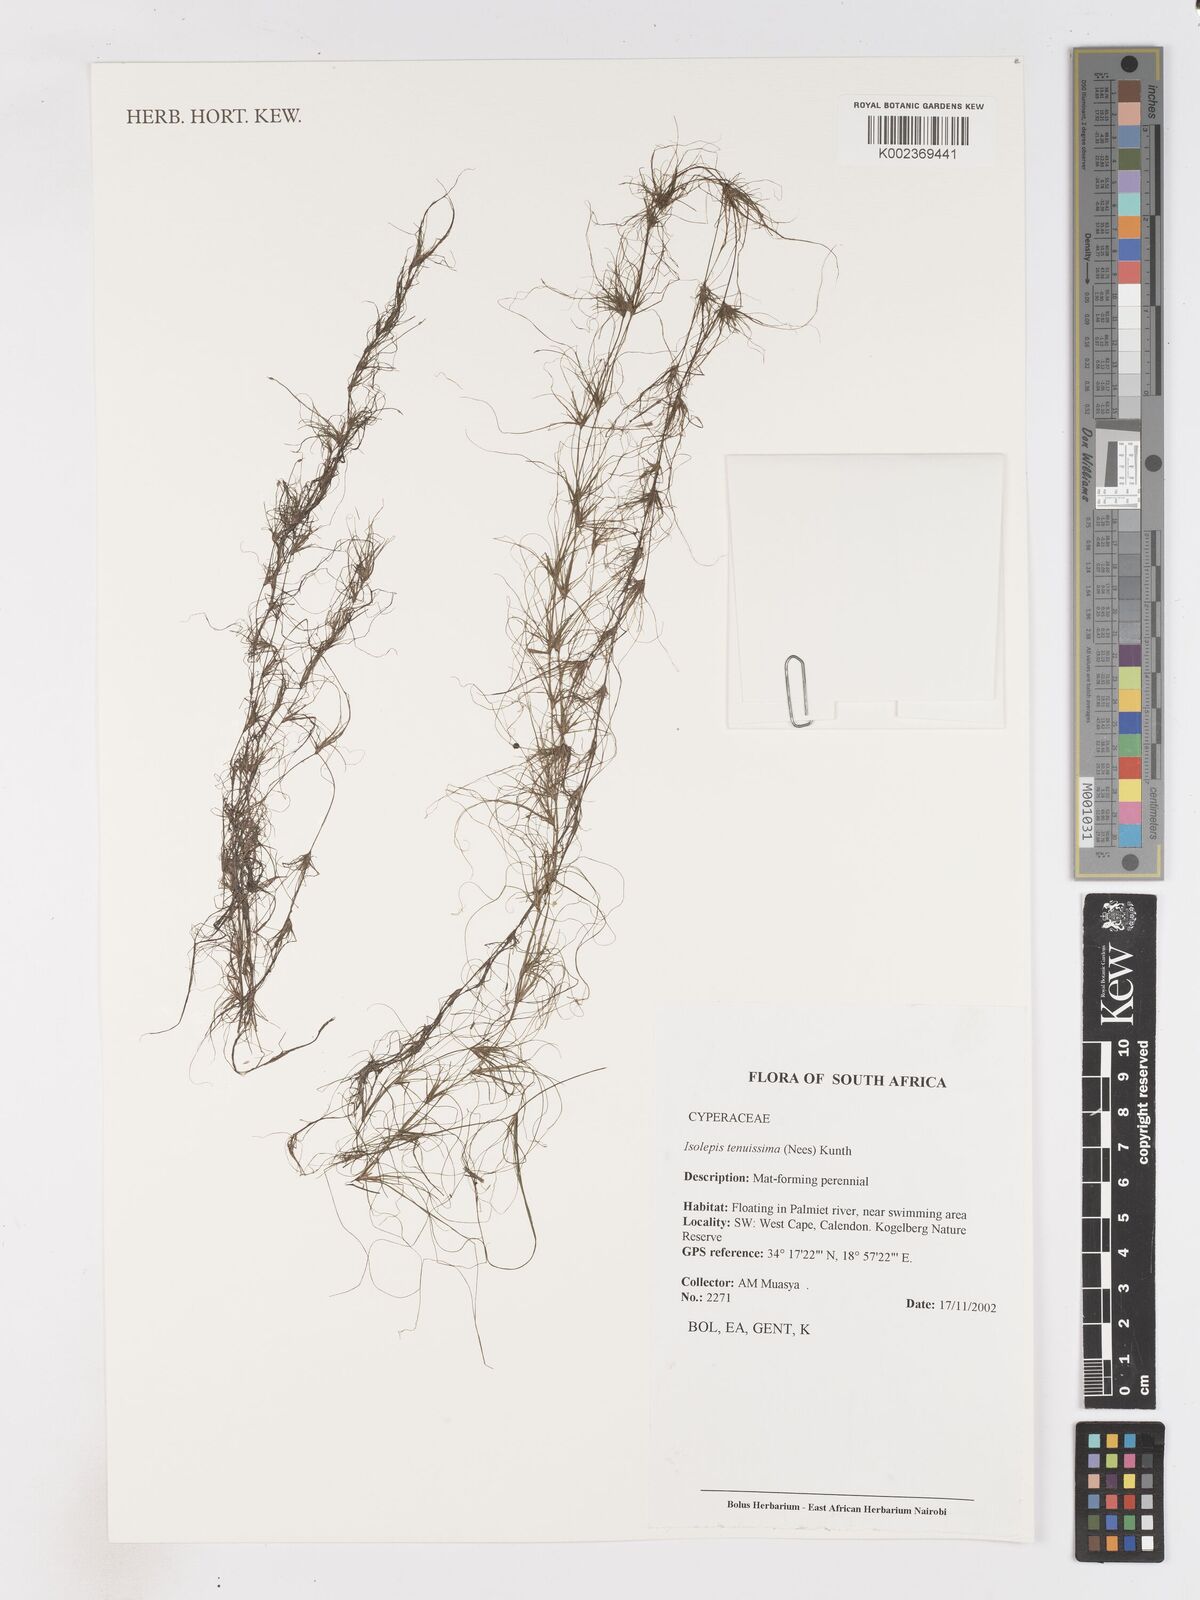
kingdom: Plantae
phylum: Tracheophyta
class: Liliopsida
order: Poales
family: Cyperaceae
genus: Isolepis
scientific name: Isolepis tenuissima
